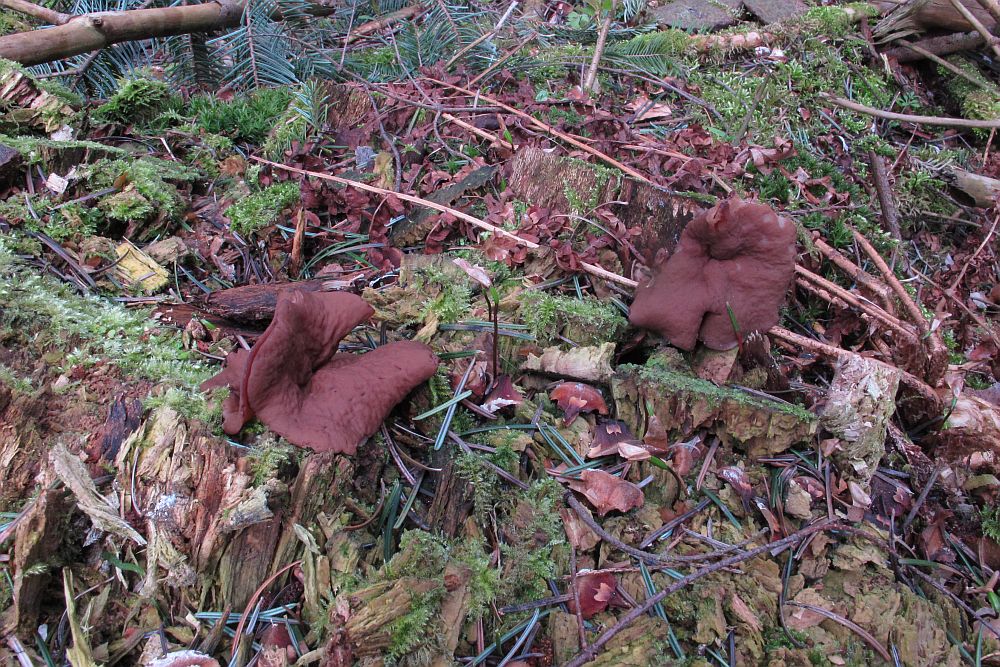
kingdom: Fungi
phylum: Ascomycota
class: Pezizomycetes
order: Pezizales
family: Discinaceae
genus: Discina
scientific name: Discina ancilis
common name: udbredt stenmorkel
